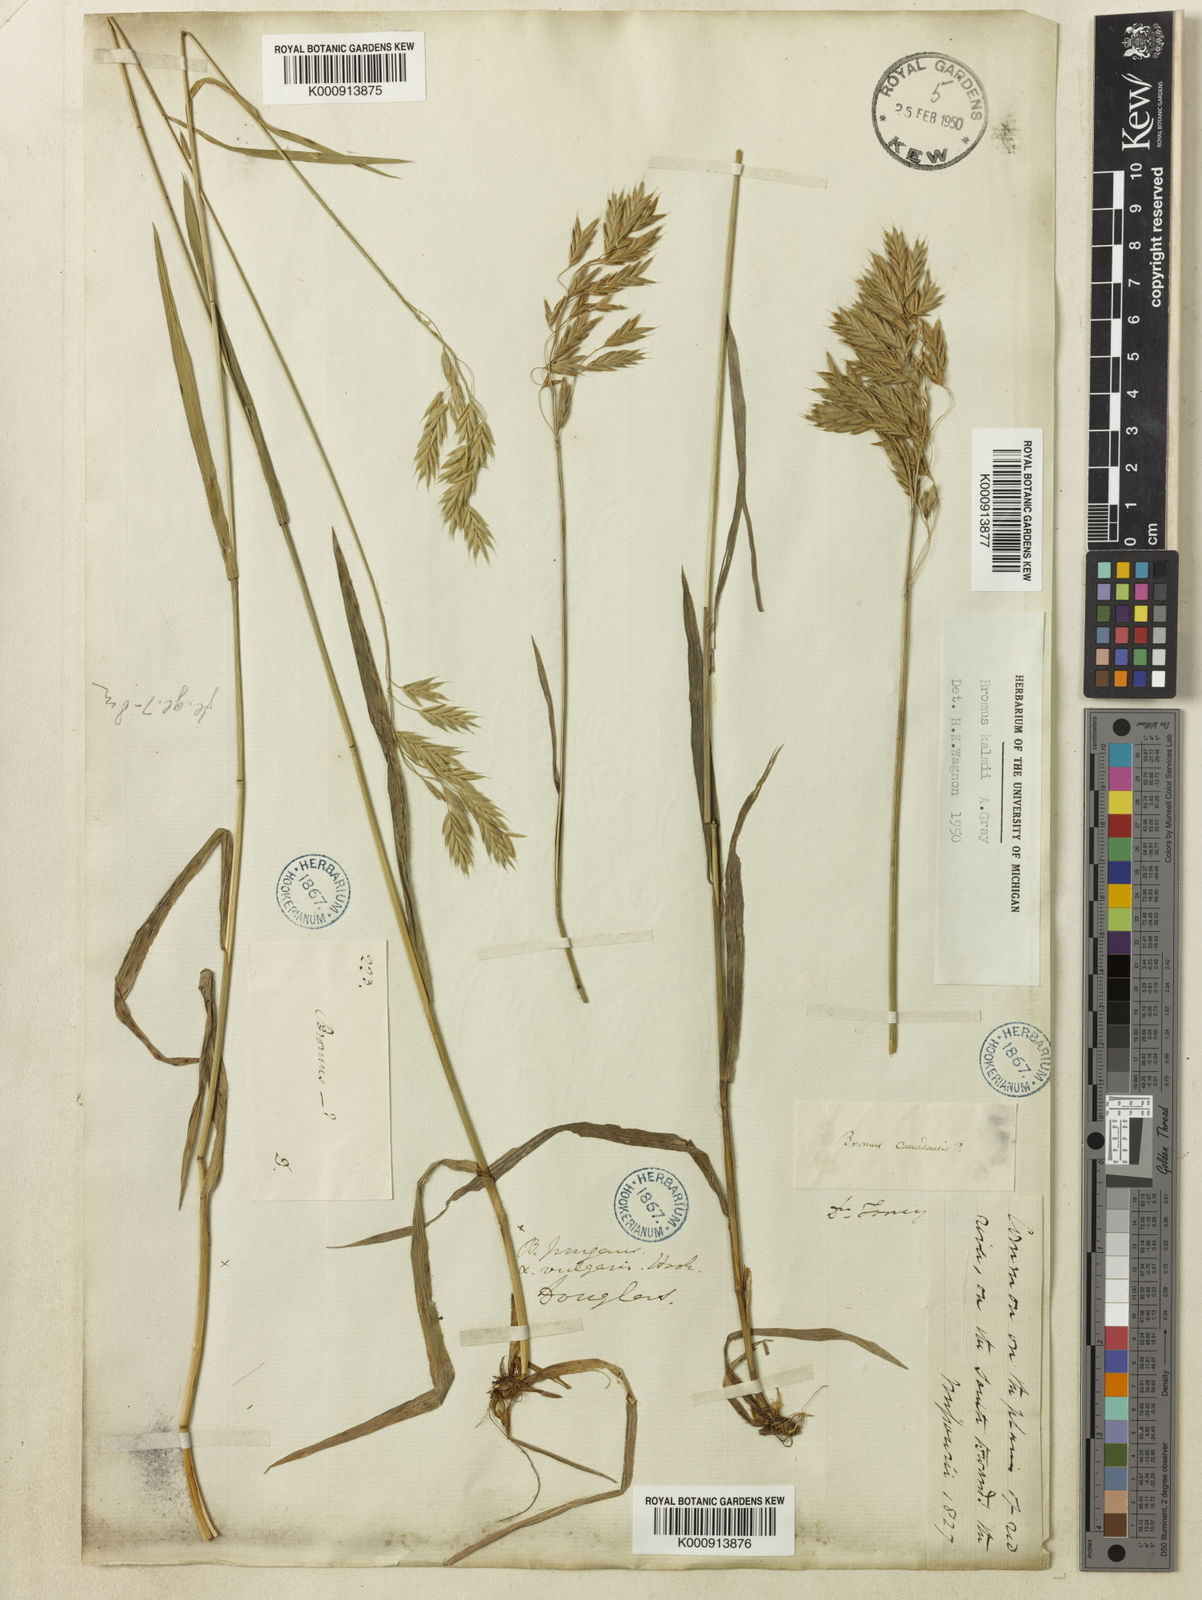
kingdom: Plantae
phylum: Tracheophyta
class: Liliopsida
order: Poales
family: Poaceae
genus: Bromus
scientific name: Bromus kalmii
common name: Kalm brome
